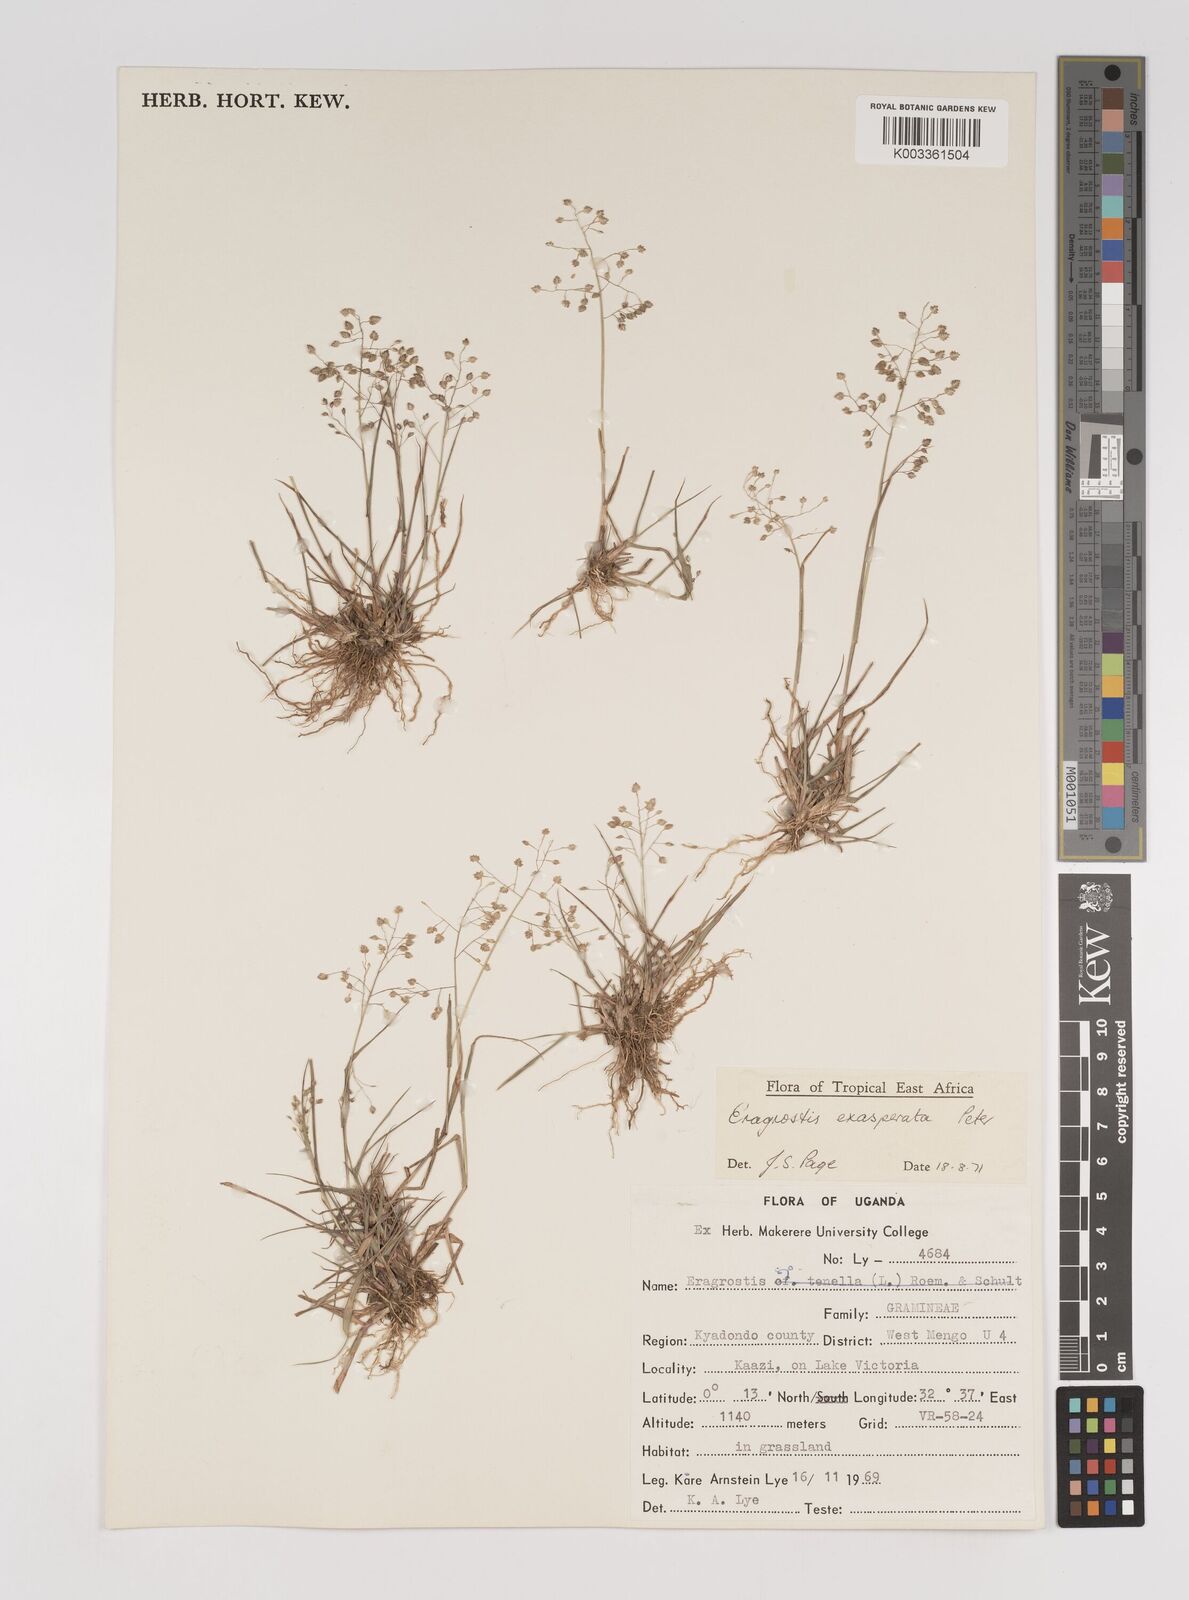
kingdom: Plantae
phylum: Tracheophyta
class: Liliopsida
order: Poales
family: Poaceae
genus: Eragrostis
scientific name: Eragrostis exasperata
